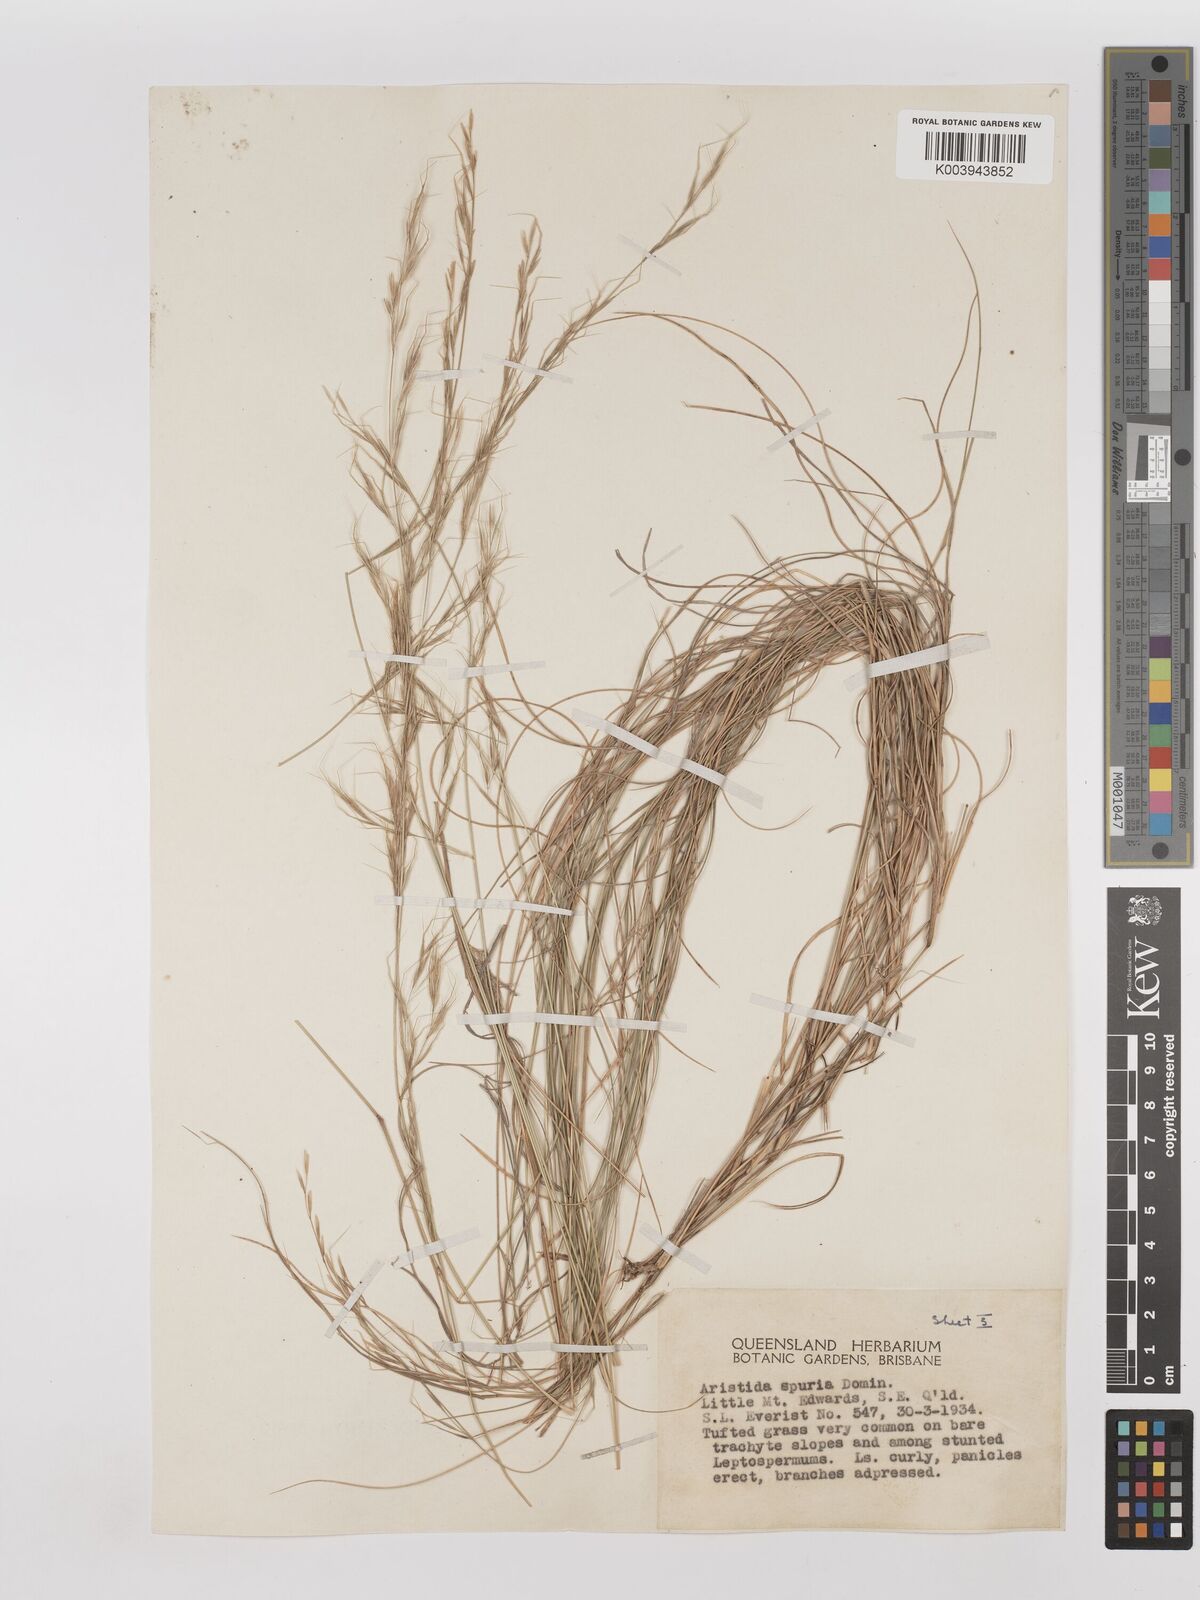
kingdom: Plantae
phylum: Tracheophyta
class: Liliopsida
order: Poales
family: Poaceae
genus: Aristida
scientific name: Aristida spuria
